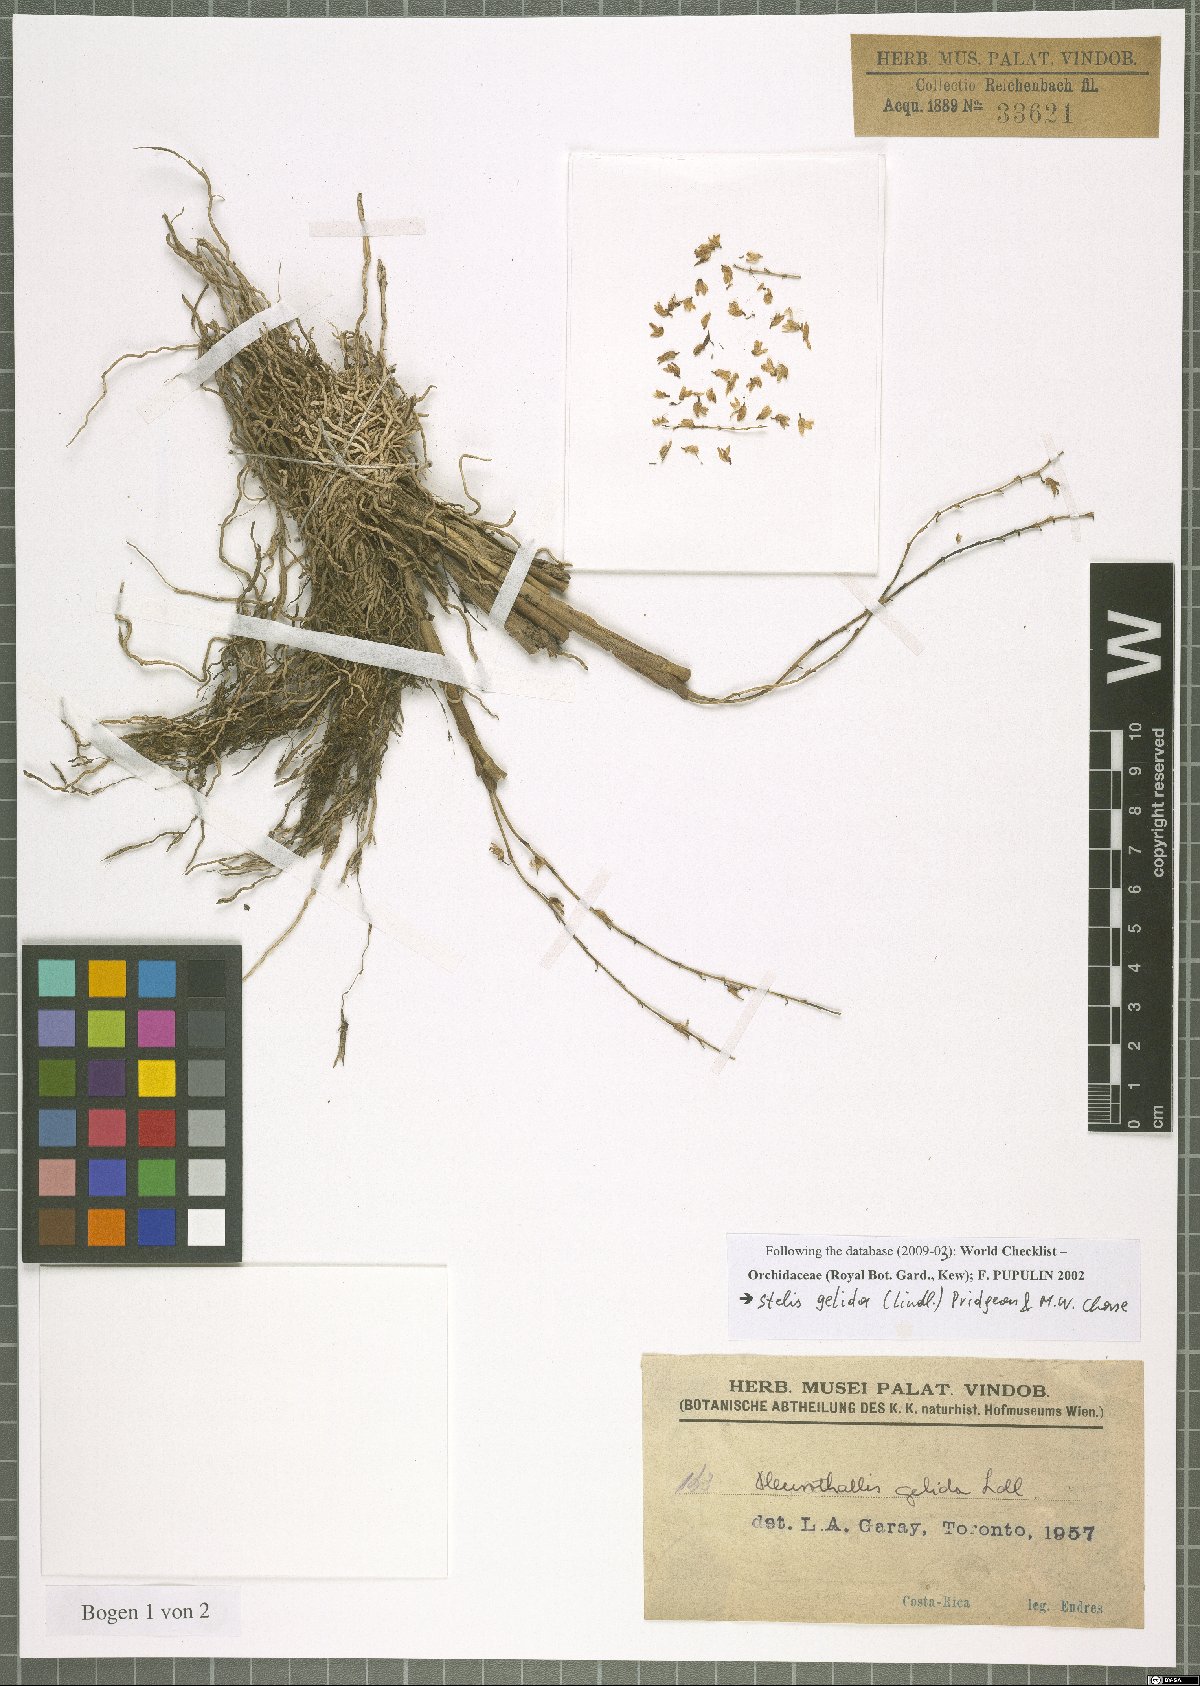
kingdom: Plantae
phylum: Tracheophyta
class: Liliopsida
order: Asparagales
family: Orchidaceae
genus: Stelis
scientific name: Stelis gelida
